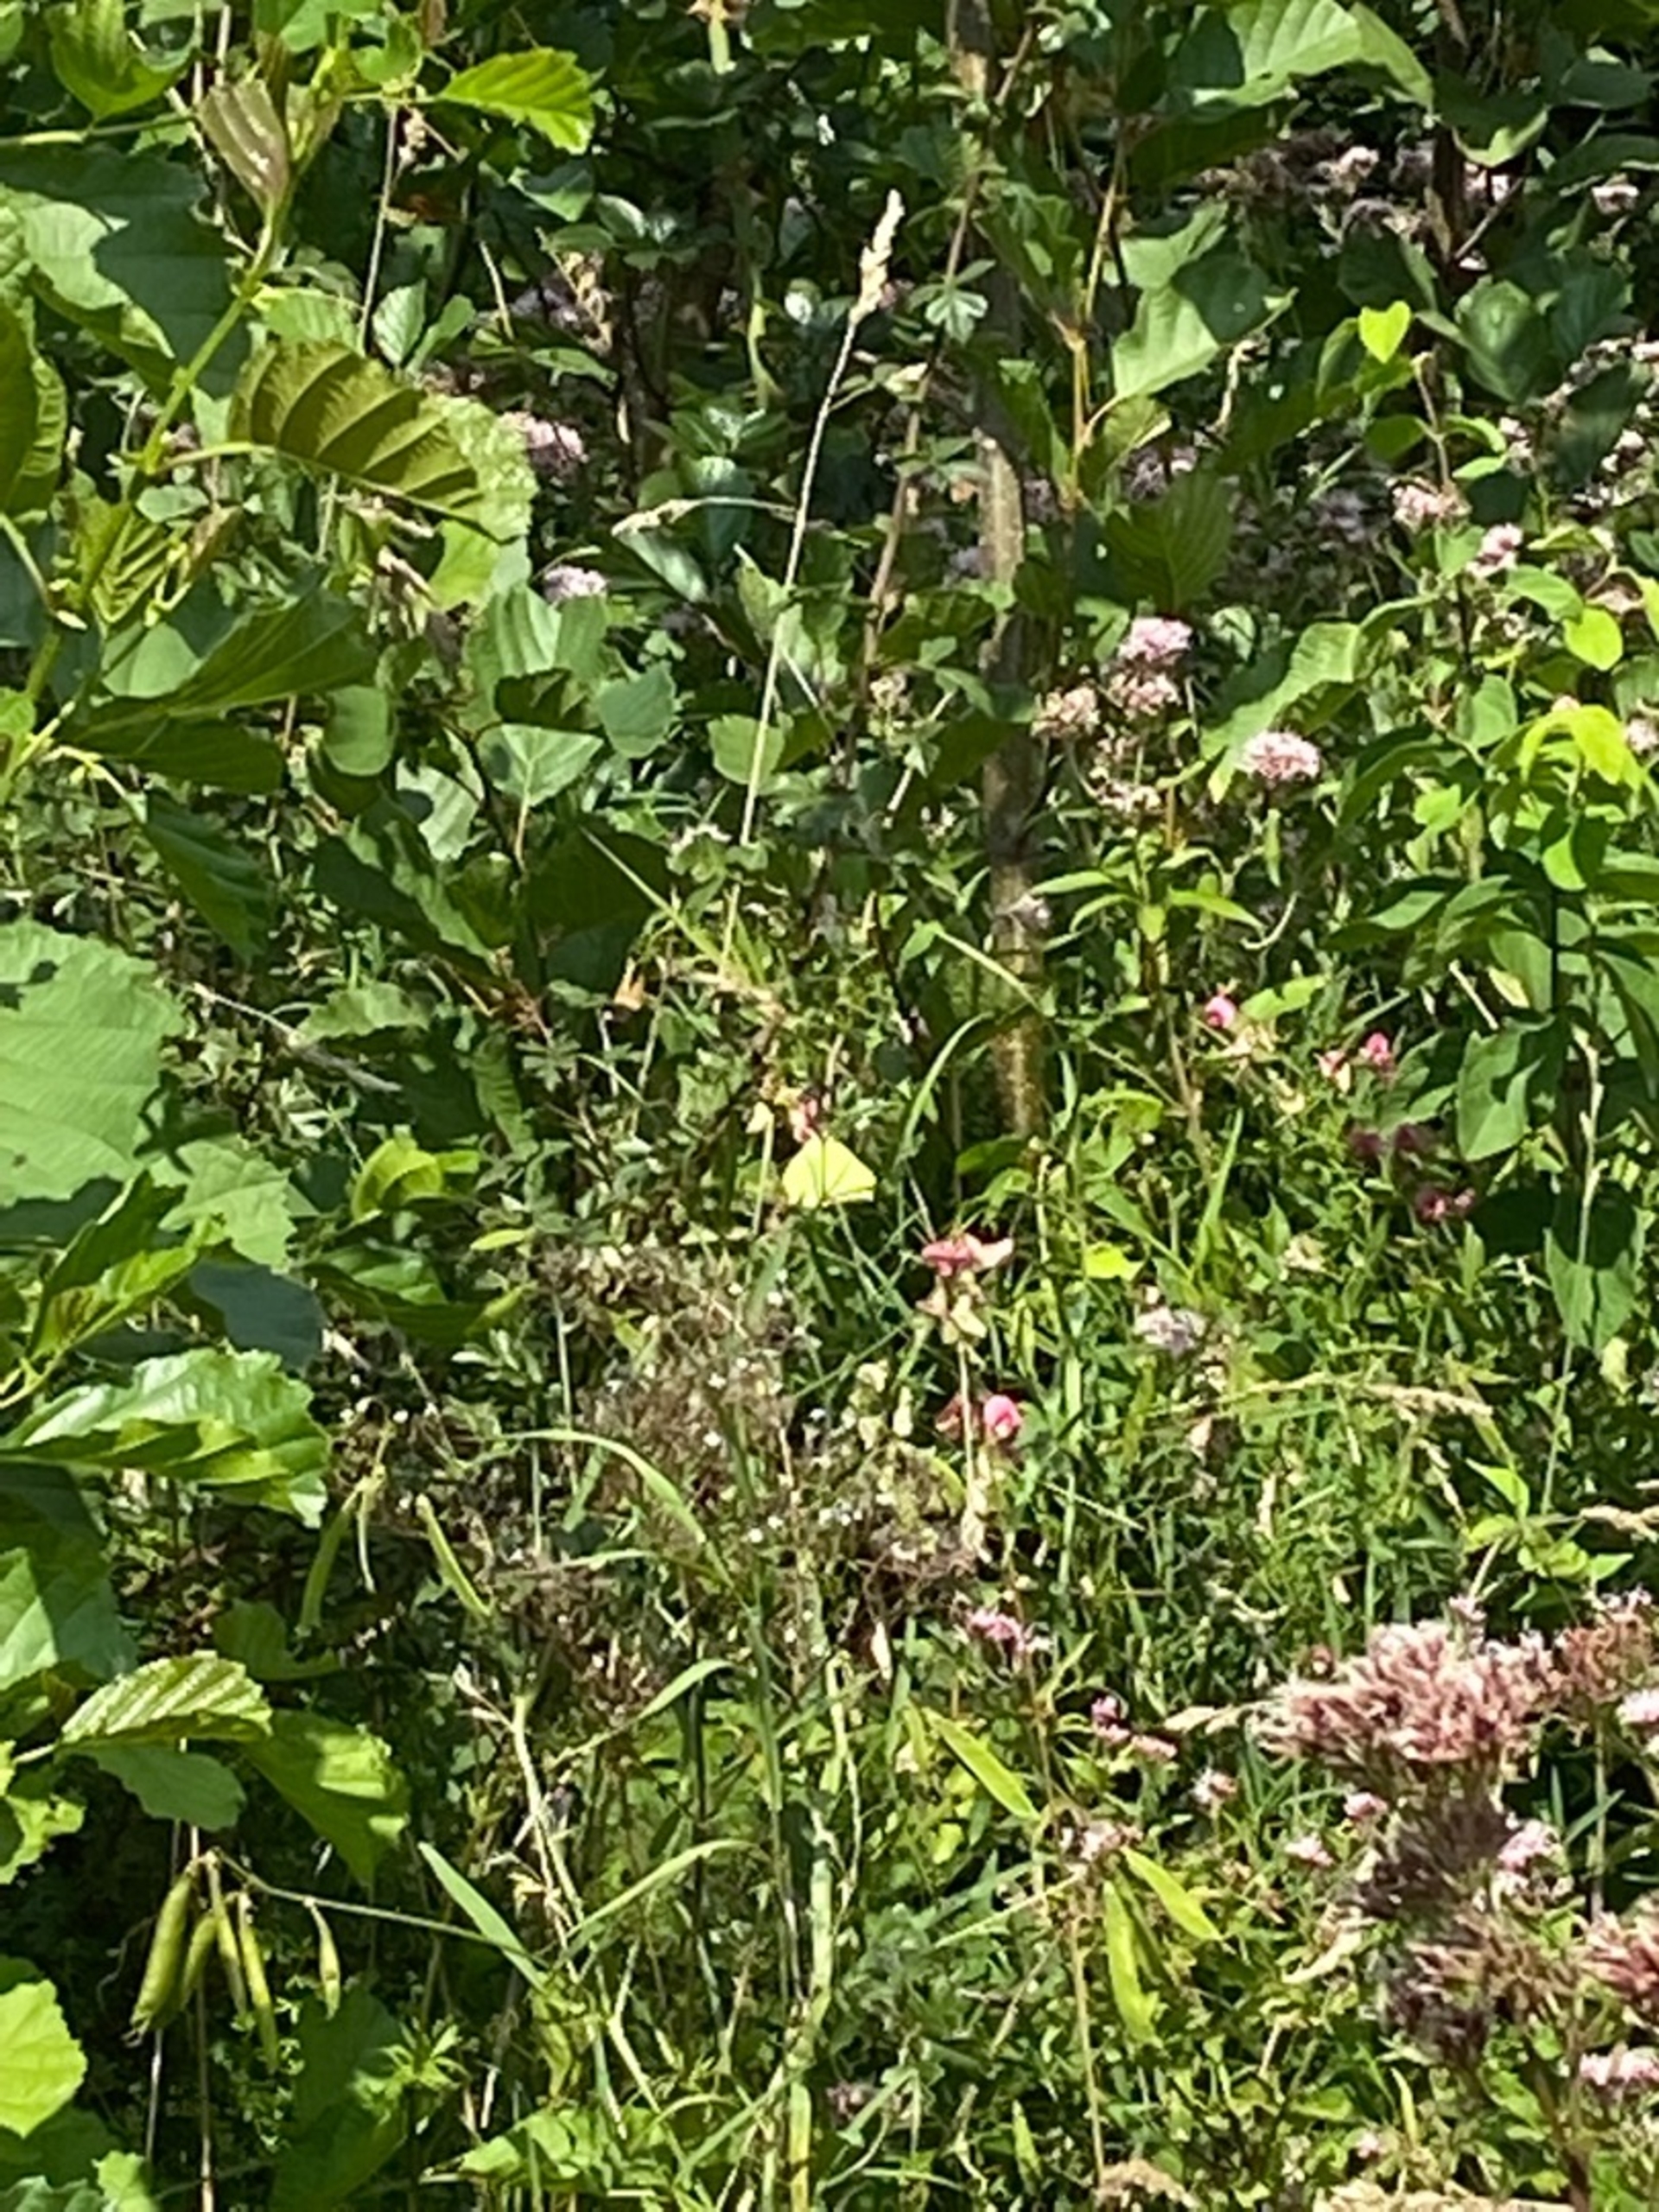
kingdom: Animalia
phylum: Arthropoda
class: Insecta
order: Lepidoptera
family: Pieridae
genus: Gonepteryx
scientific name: Gonepteryx rhamni
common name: Citronsommerfugl
